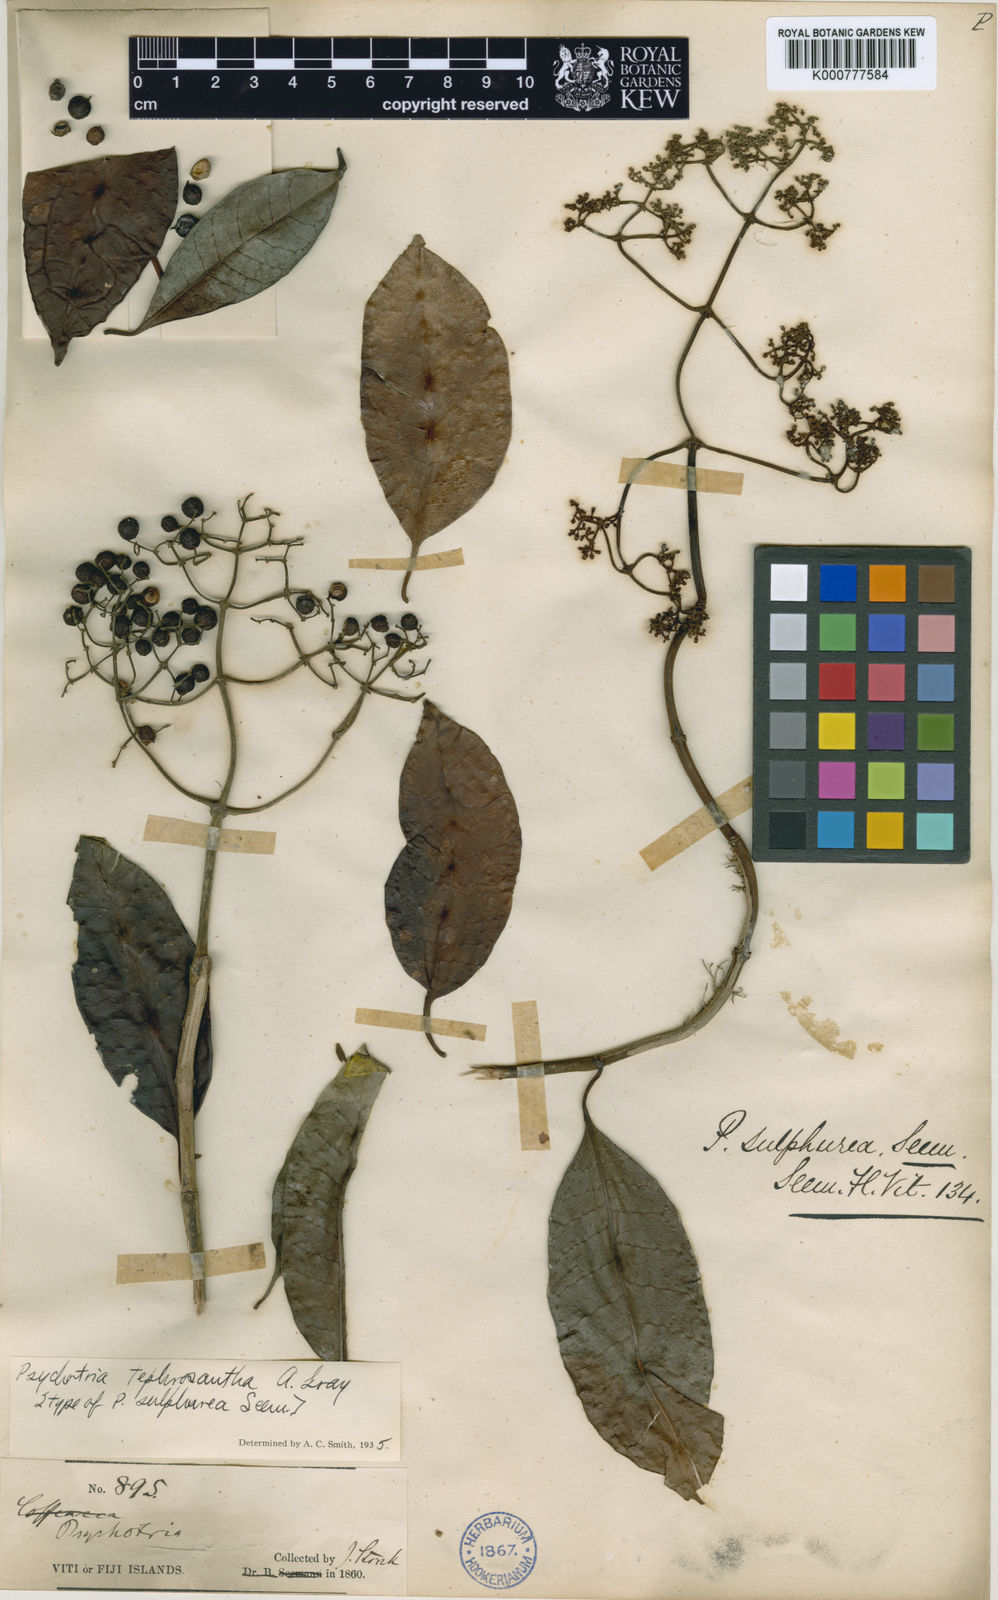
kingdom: Plantae
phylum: Tracheophyta
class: Magnoliopsida
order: Gentianales
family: Rubiaceae
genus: Psychotria
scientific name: Psychotria tephrosantha
